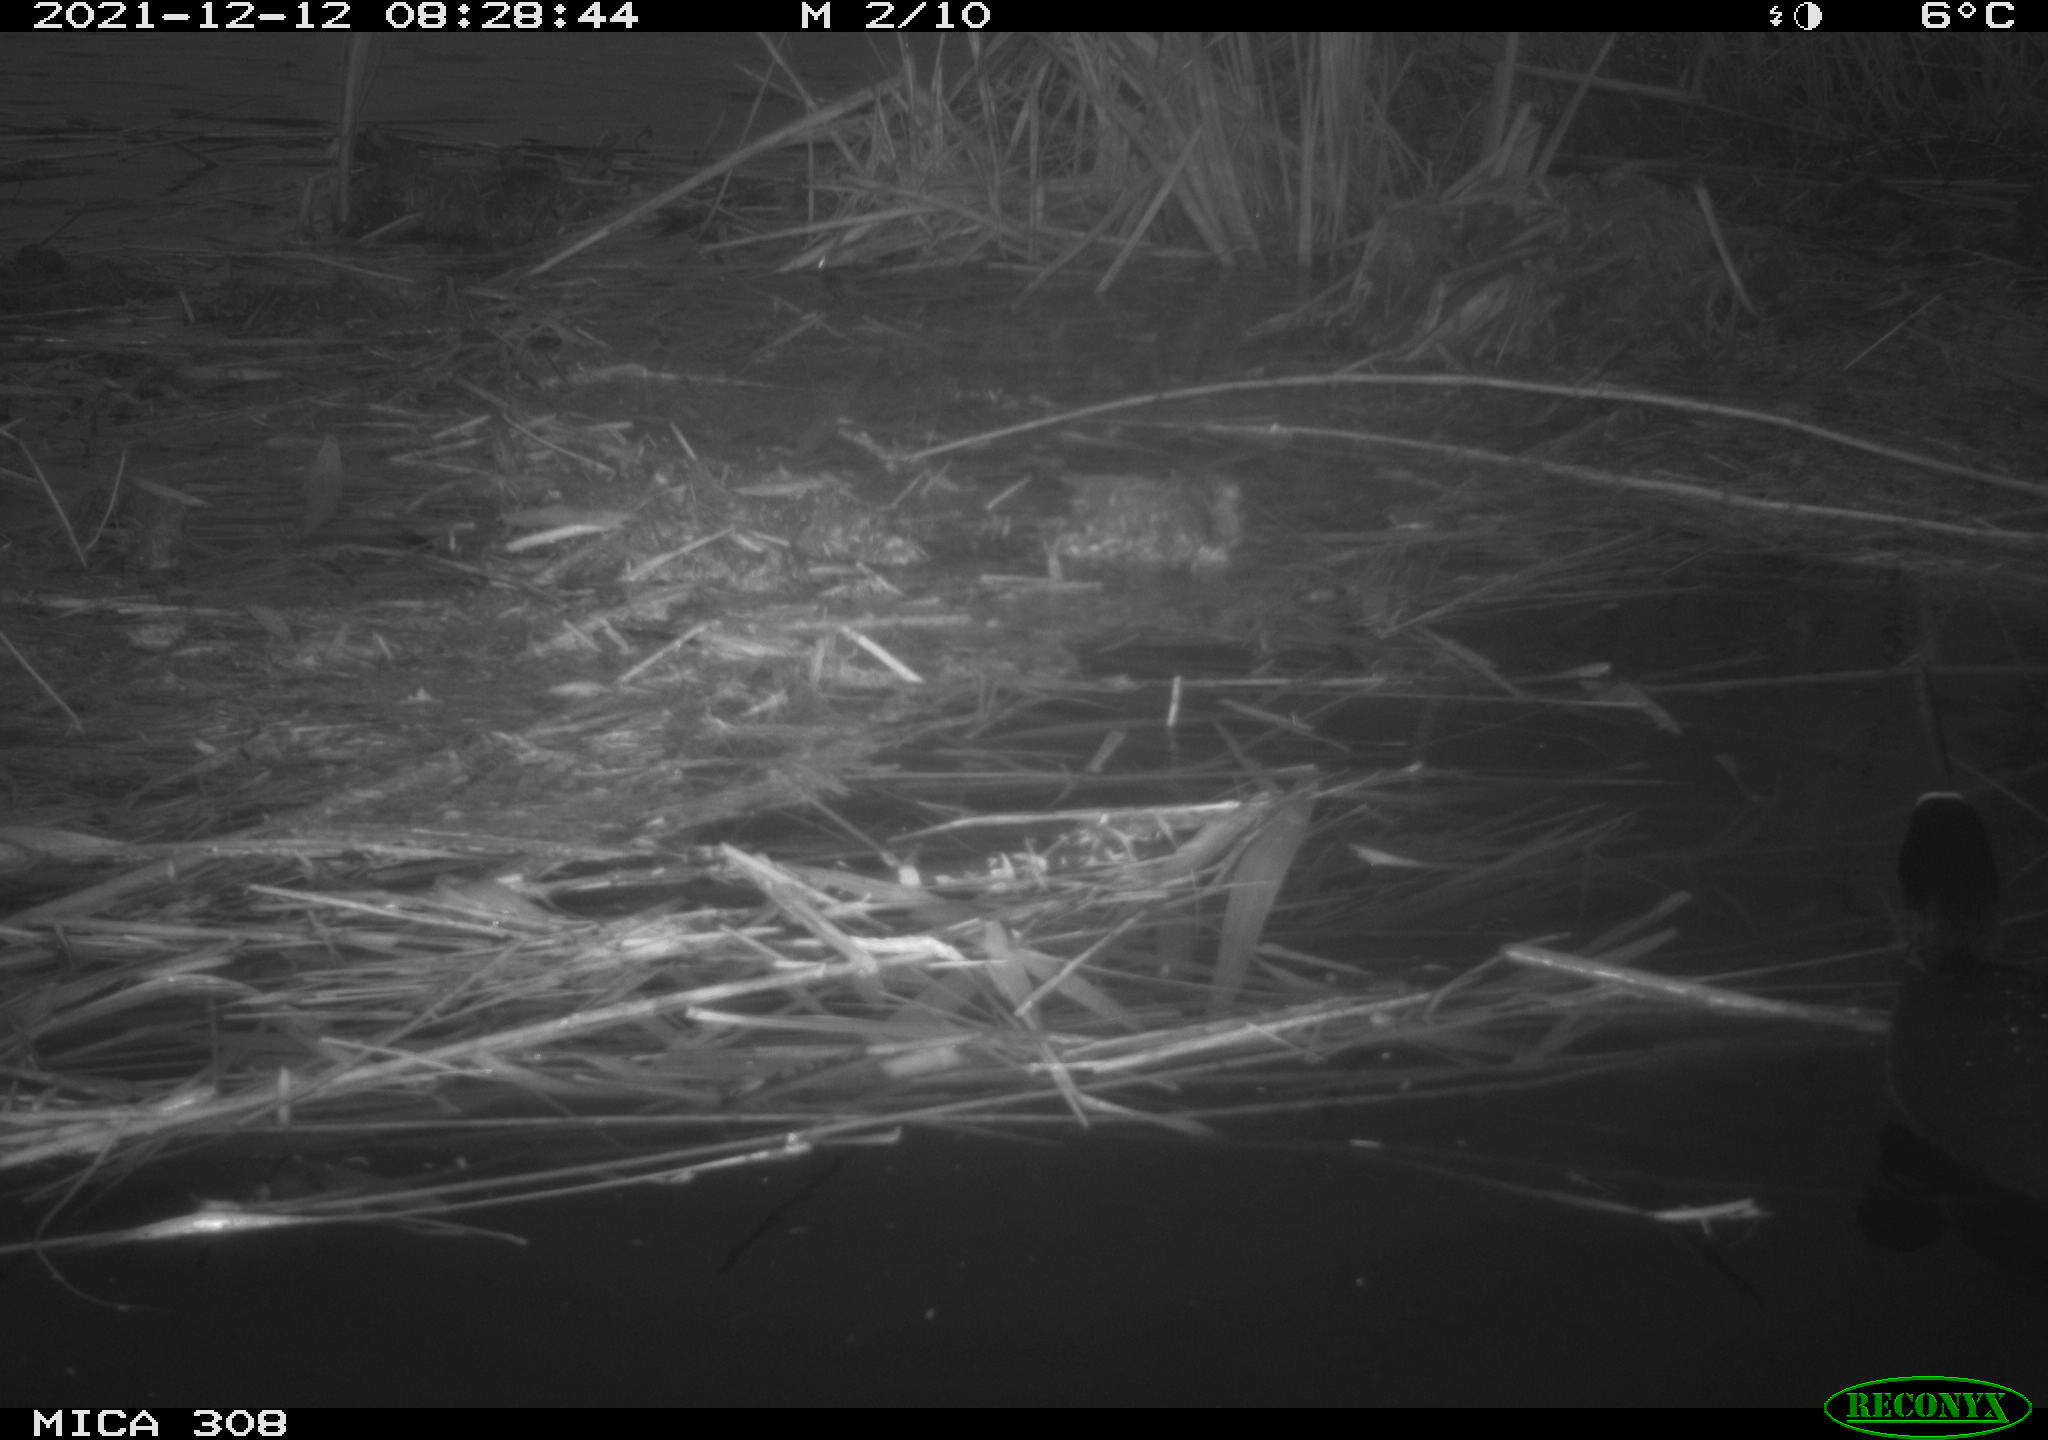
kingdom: Animalia
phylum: Chordata
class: Aves
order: Gruiformes
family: Rallidae
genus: Gallinula
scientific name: Gallinula chloropus
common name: Common moorhen
